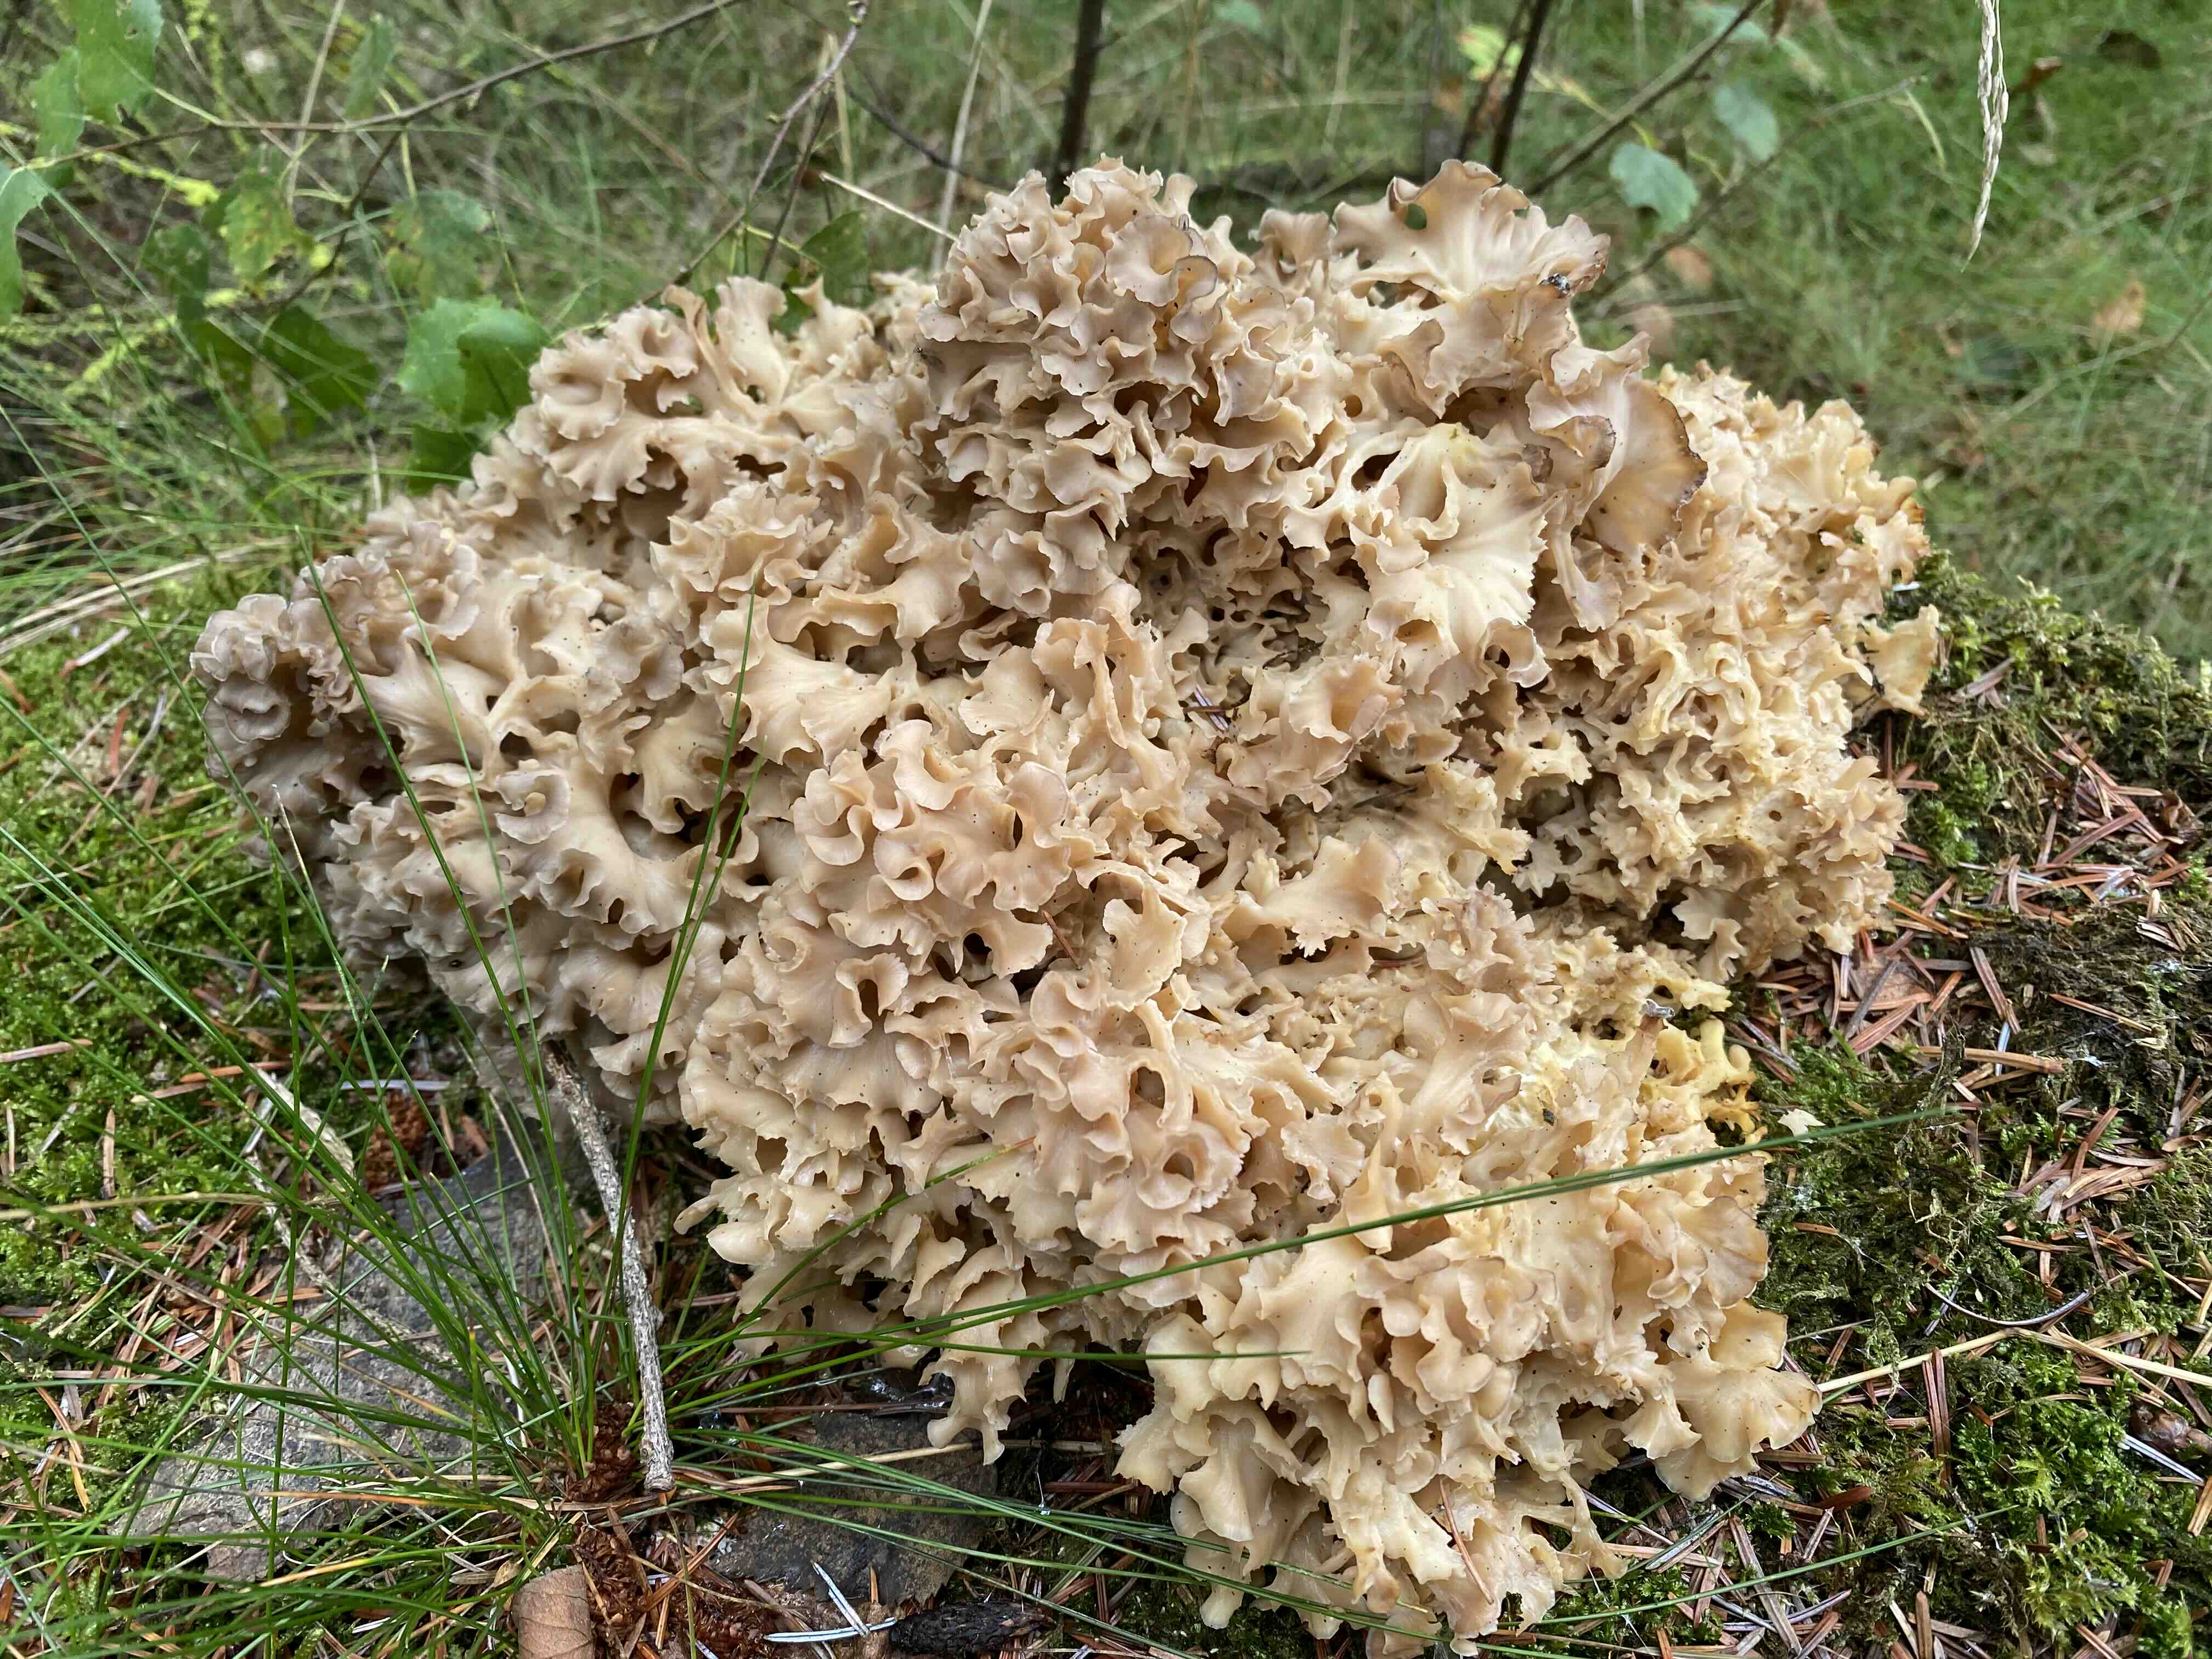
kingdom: Fungi
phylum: Basidiomycota
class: Agaricomycetes
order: Polyporales
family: Sparassidaceae
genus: Sparassis
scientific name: Sparassis crispa
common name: kruset blomkålssvamp
